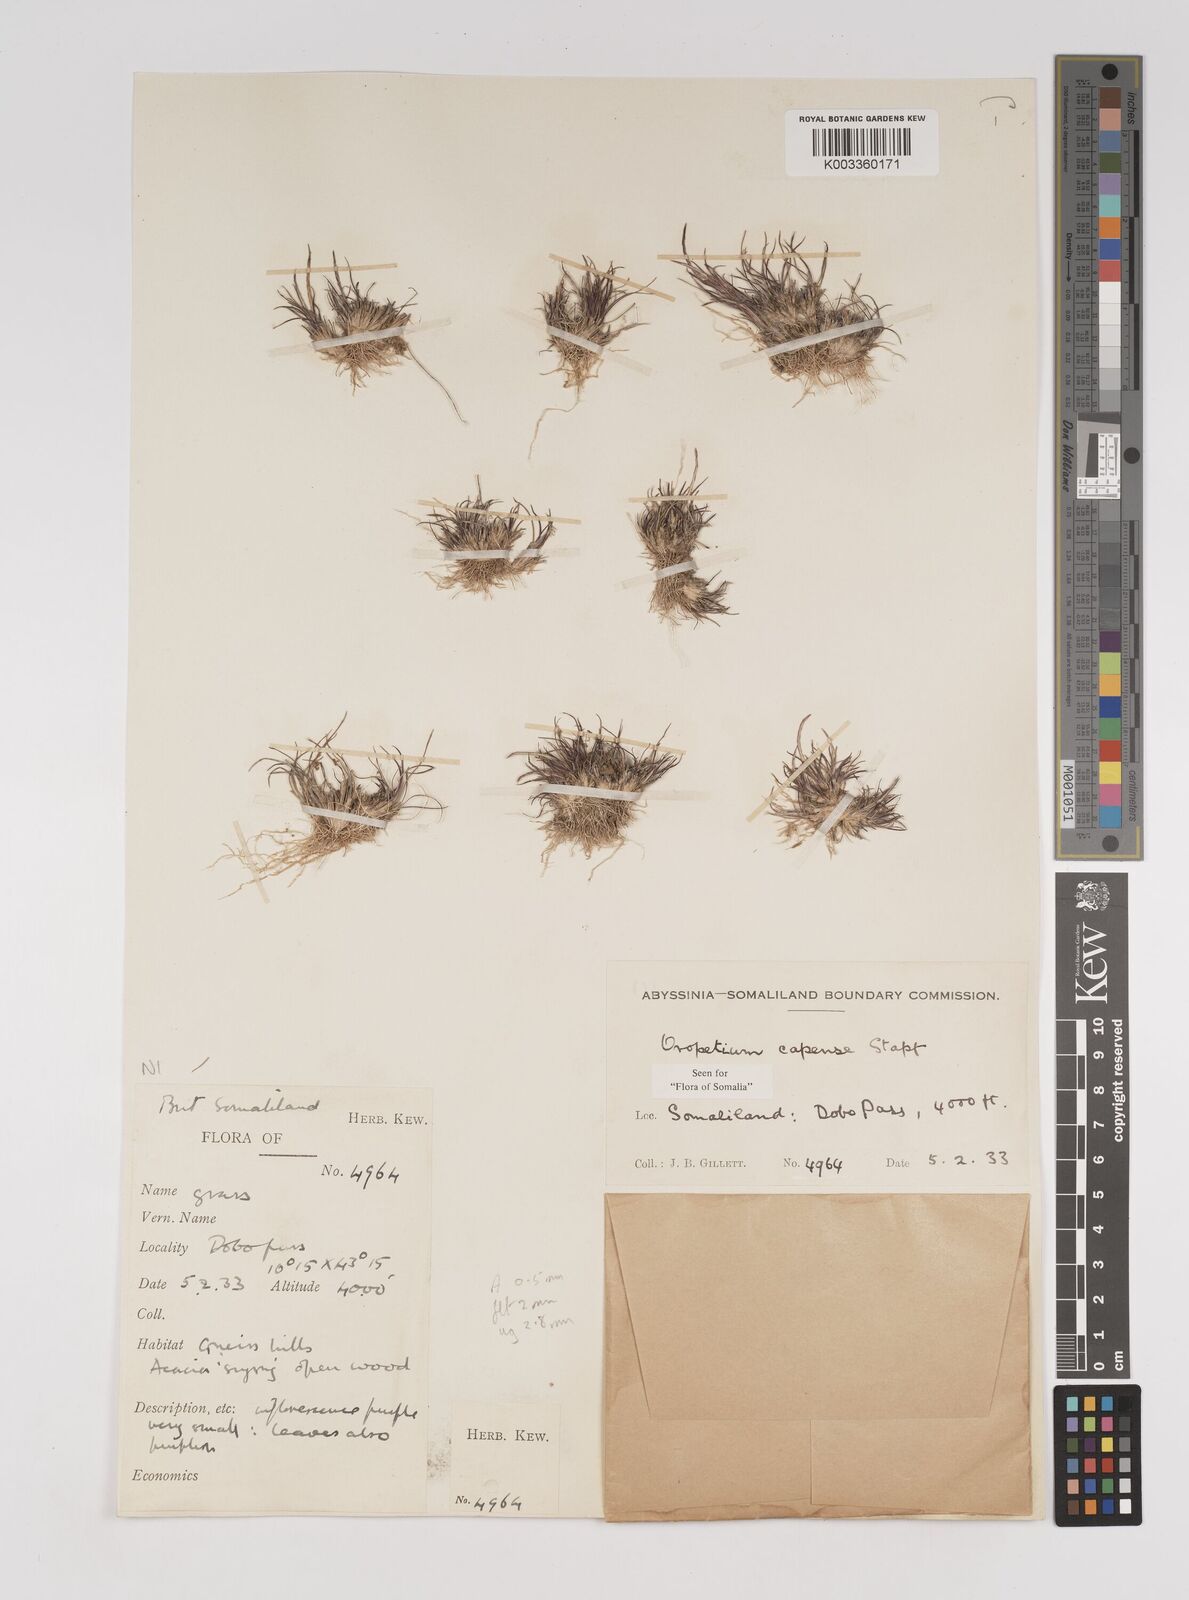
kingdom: Plantae
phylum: Tracheophyta
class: Liliopsida
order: Poales
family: Poaceae
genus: Oropetium
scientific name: Oropetium capense
